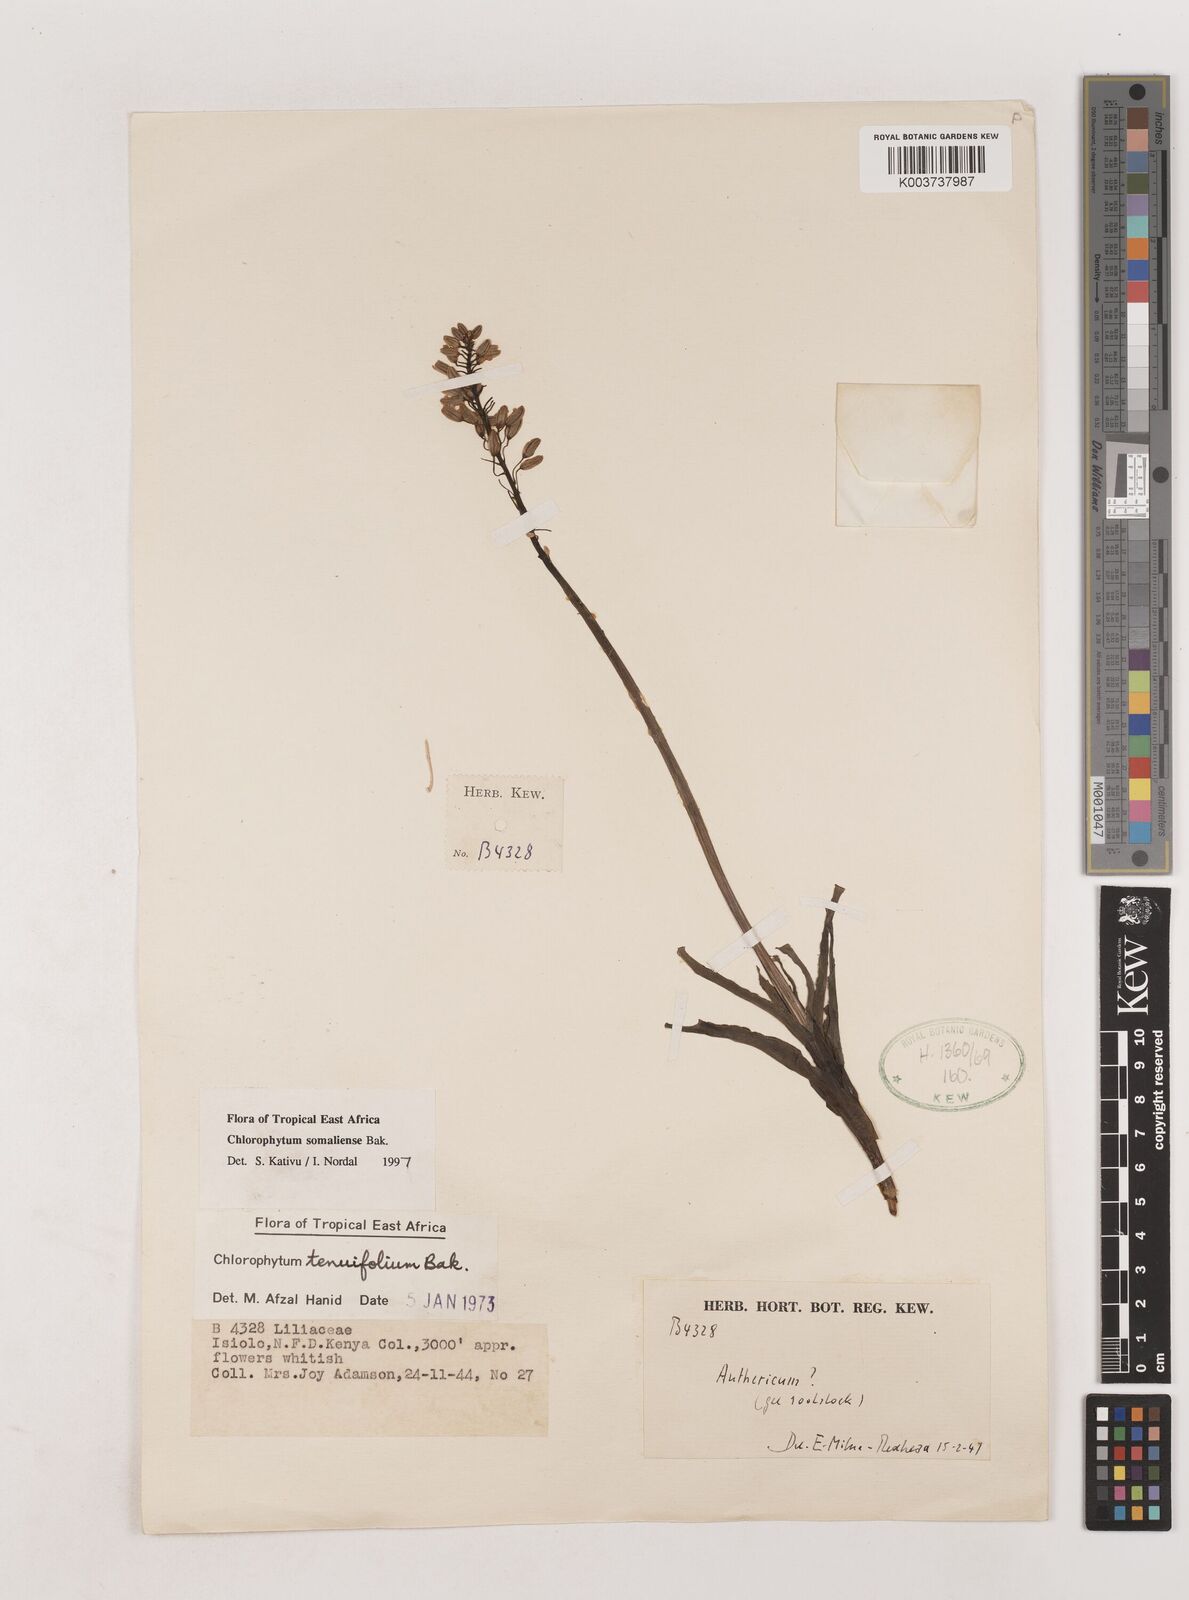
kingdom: Plantae
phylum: Tracheophyta
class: Liliopsida
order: Asparagales
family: Asparagaceae
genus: Chlorophytum
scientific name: Chlorophytum somaliense
